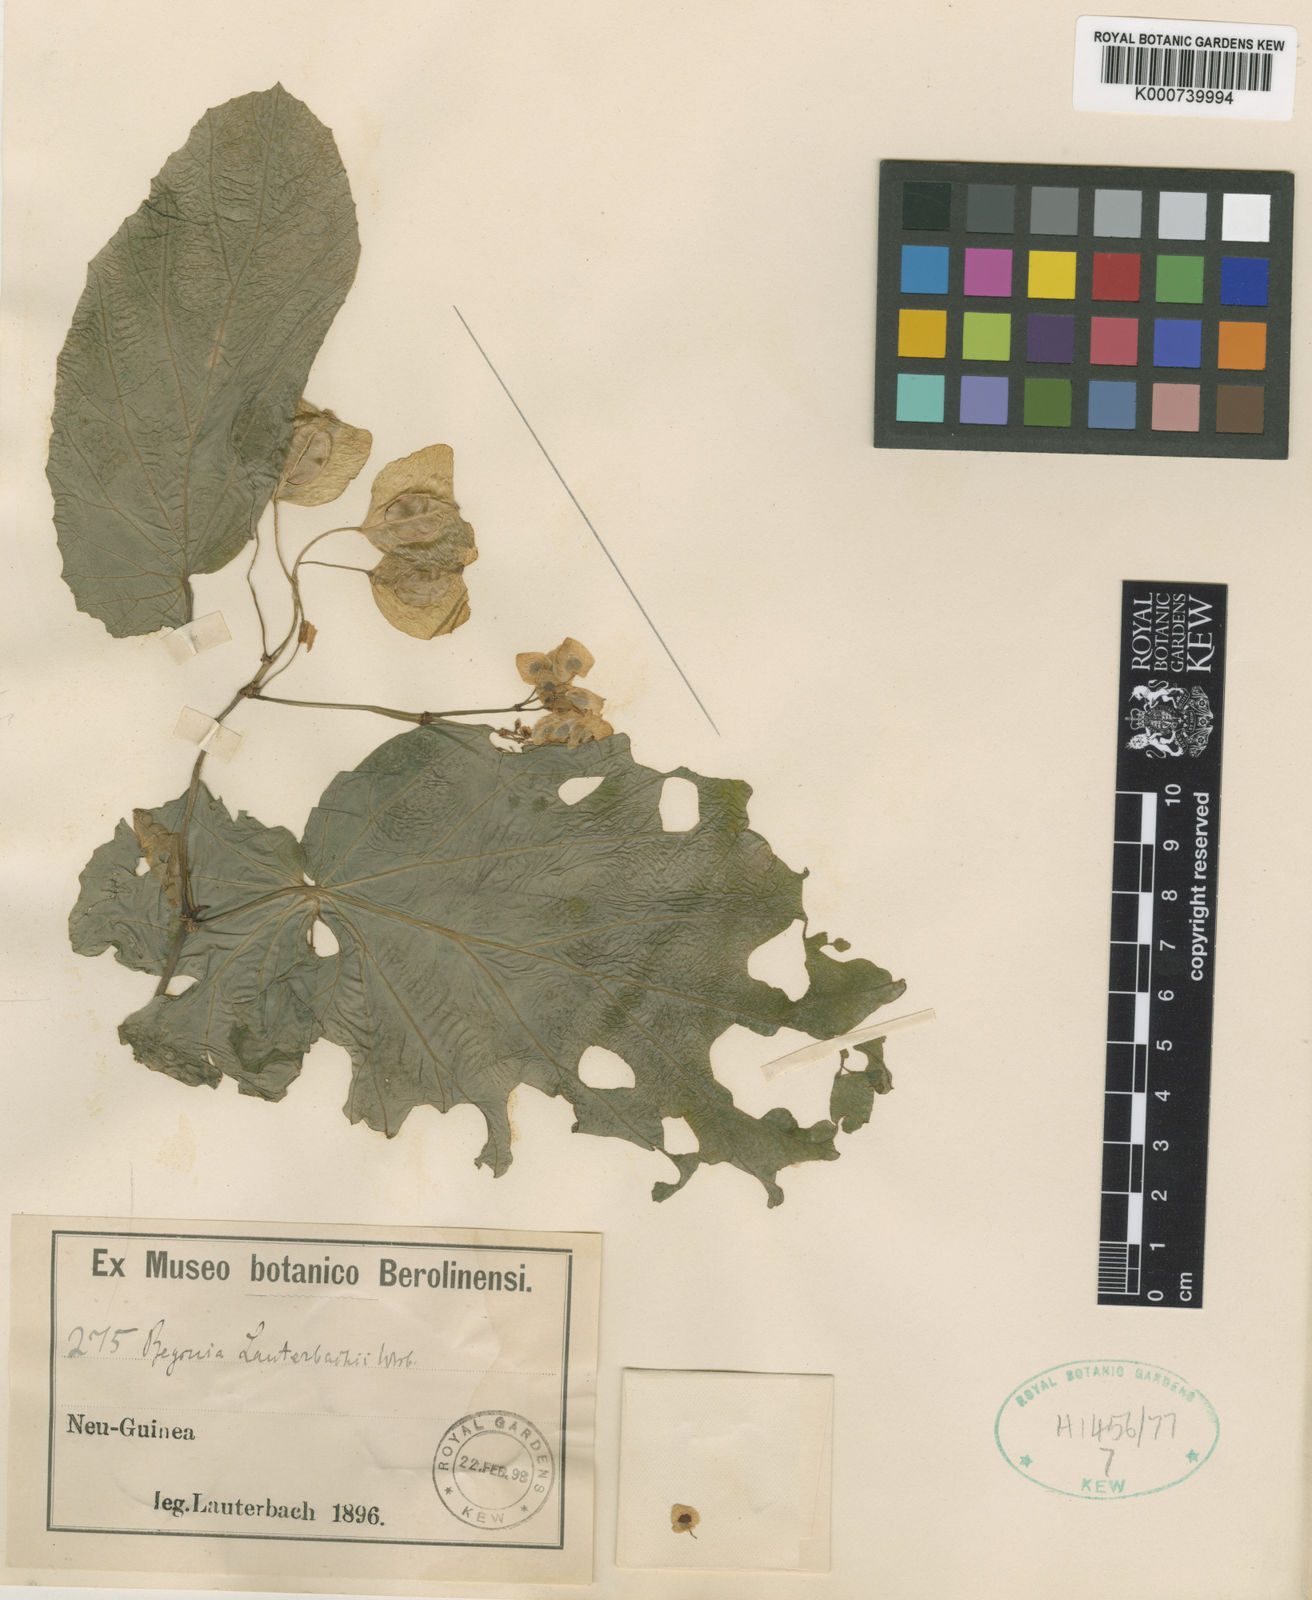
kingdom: Plantae
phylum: Tracheophyta
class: Magnoliopsida
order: Cucurbitales
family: Begoniaceae
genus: Begonia
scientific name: Begonia lauterbachii
